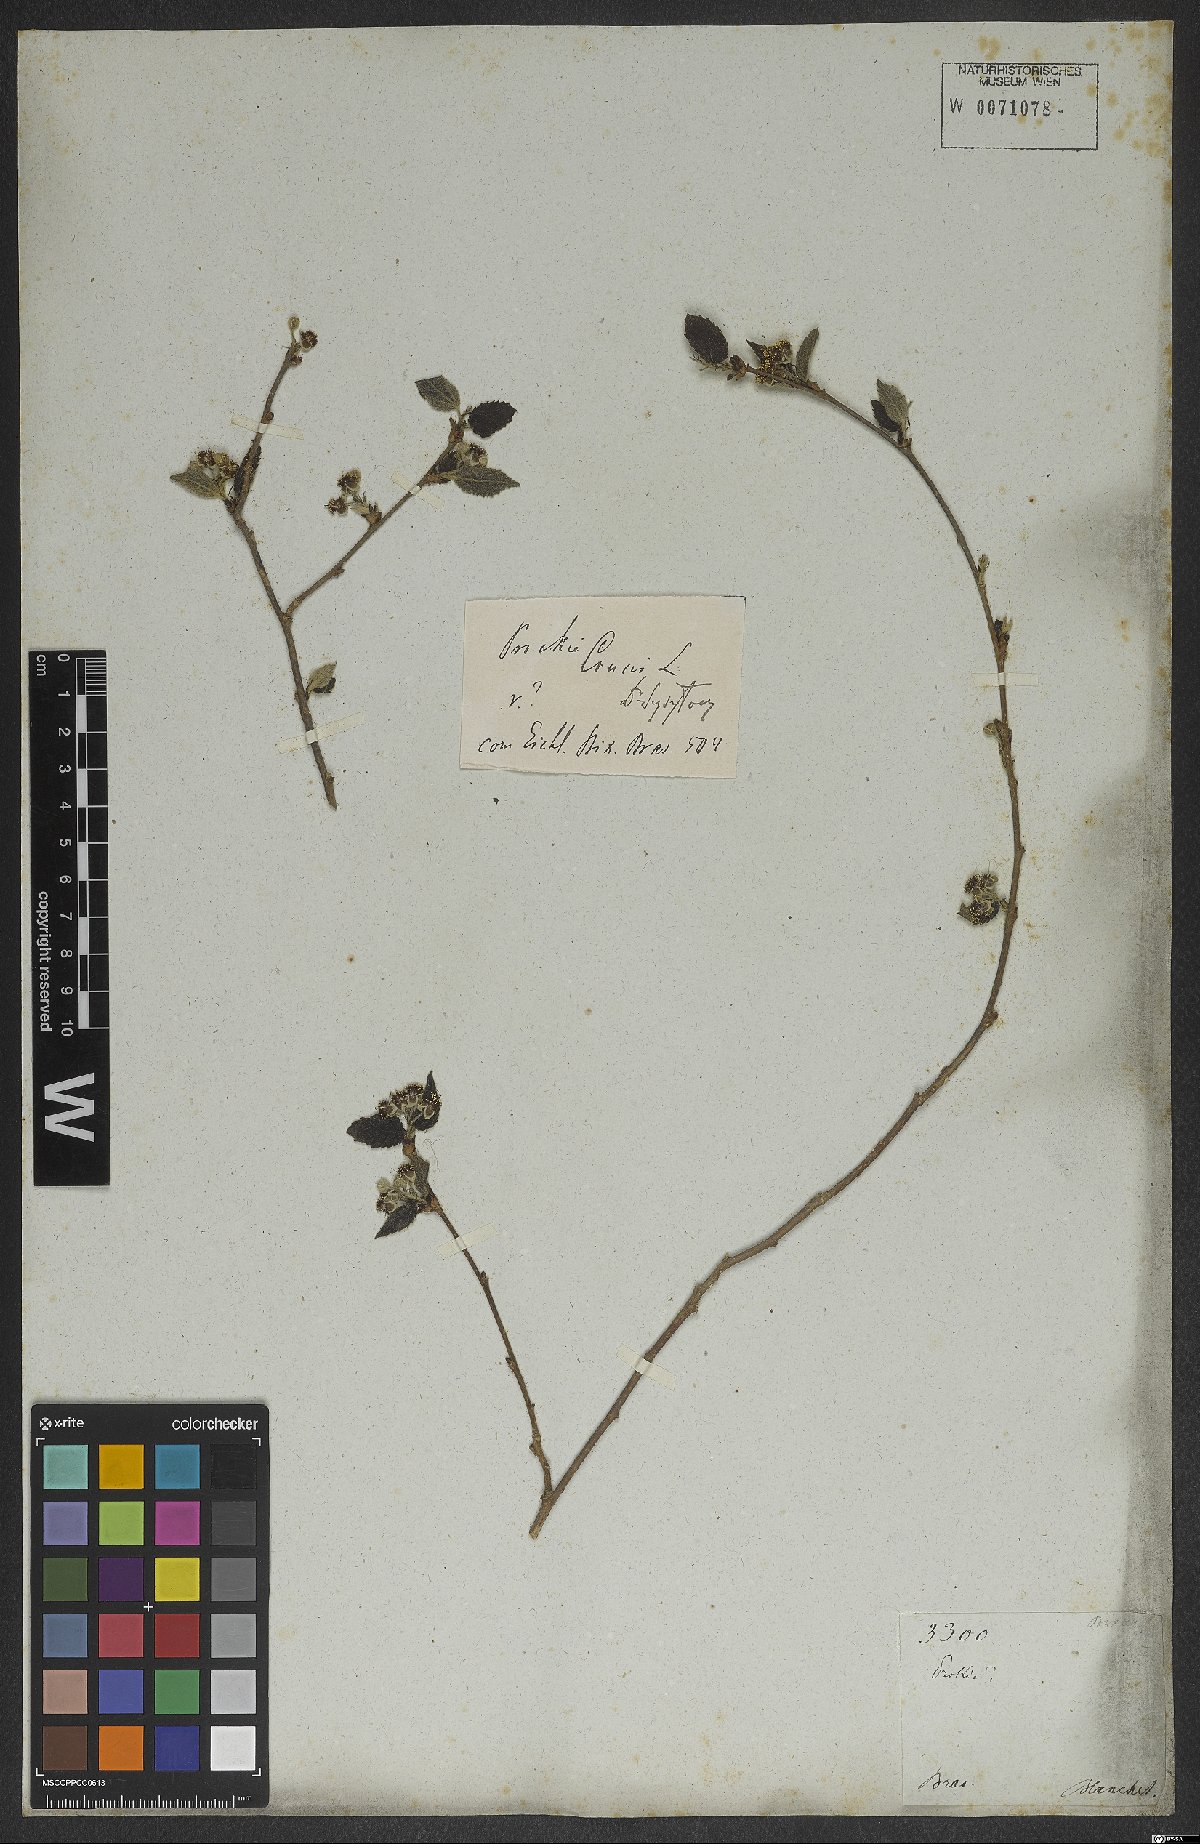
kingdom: Plantae
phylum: Tracheophyta
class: Magnoliopsida
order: Malpighiales
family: Salicaceae
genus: Prockia
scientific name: Prockia crucis
